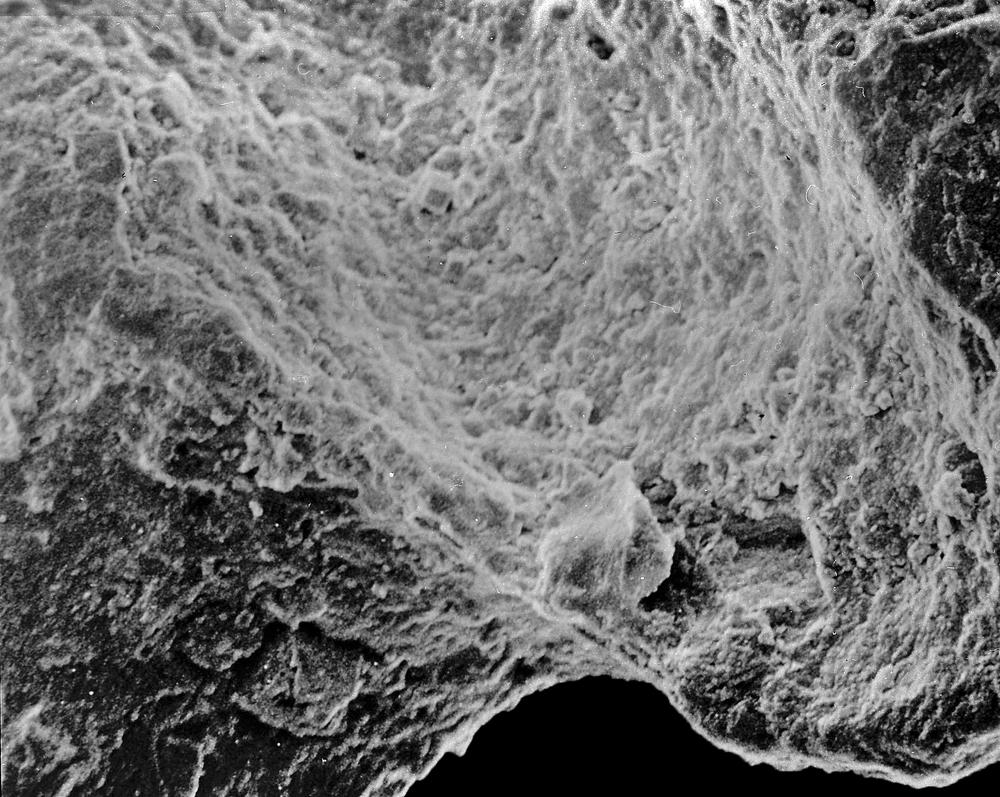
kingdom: Animalia
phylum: Brachiopoda
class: Rhynchonellata
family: Saukrodictyidae
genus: Saukrodictya
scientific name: Saukrodictya
